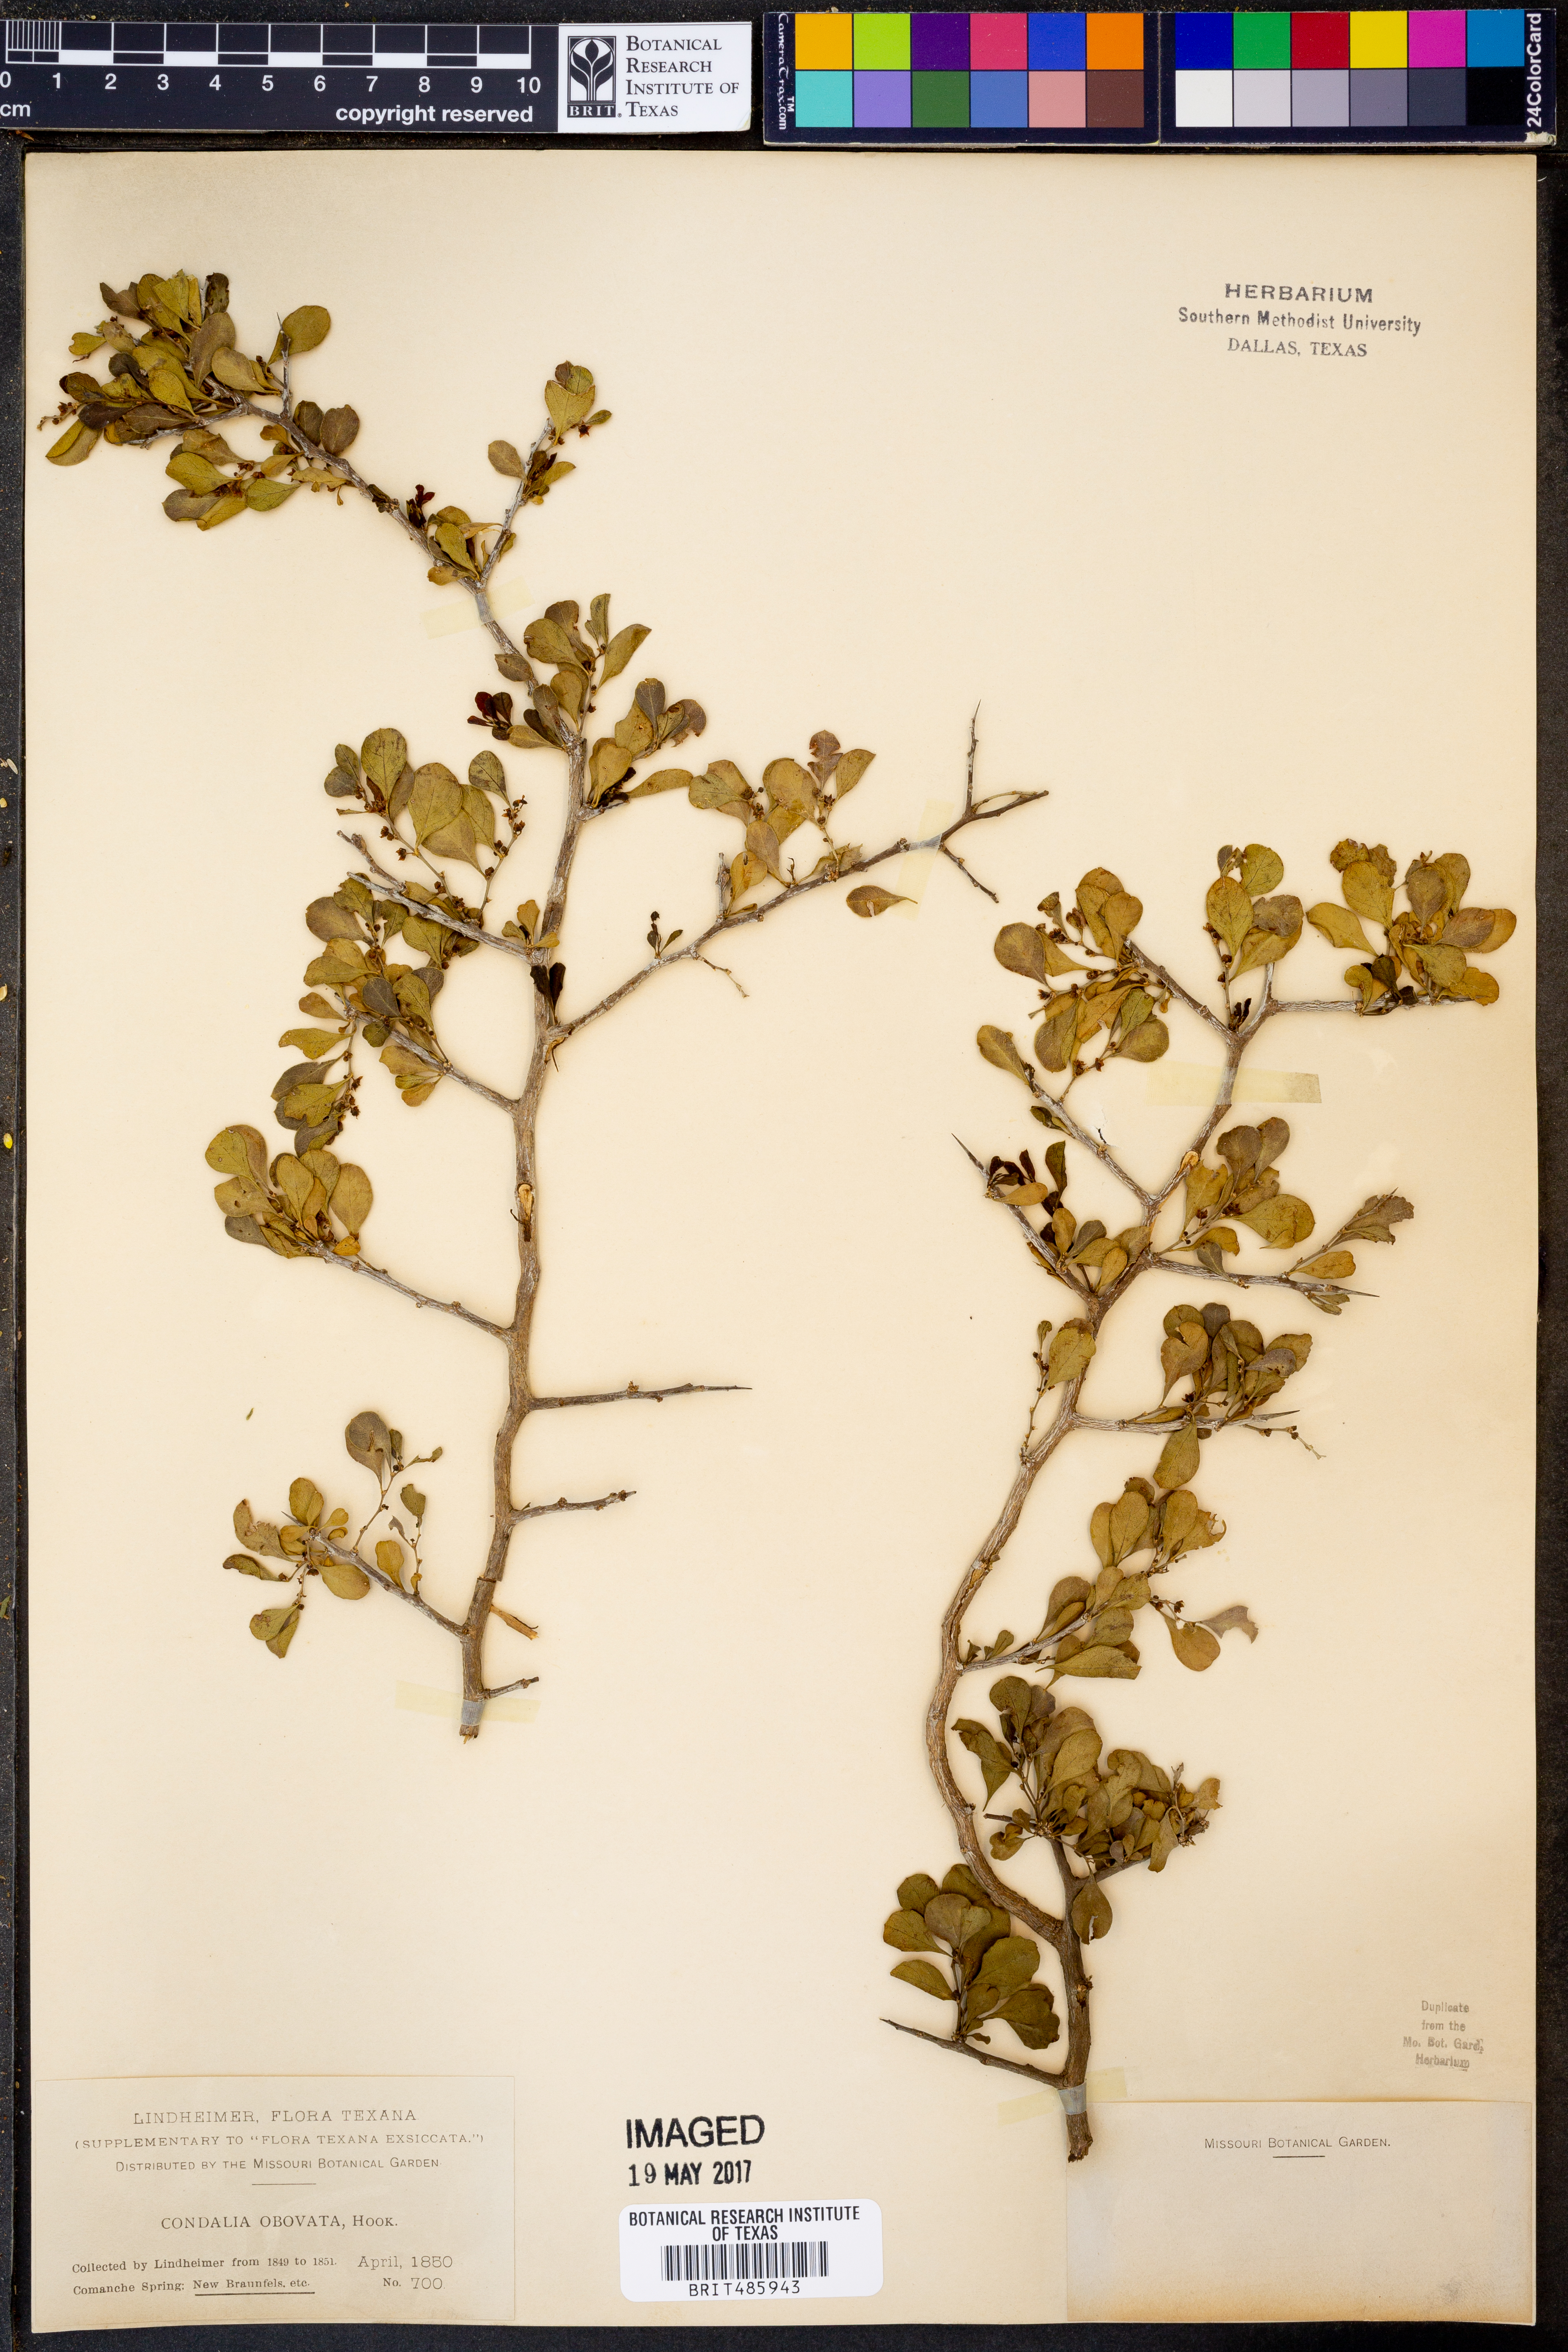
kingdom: Plantae
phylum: Tracheophyta
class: Magnoliopsida
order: Rosales
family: Rhamnaceae
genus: Condalia
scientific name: Condalia hookeri
